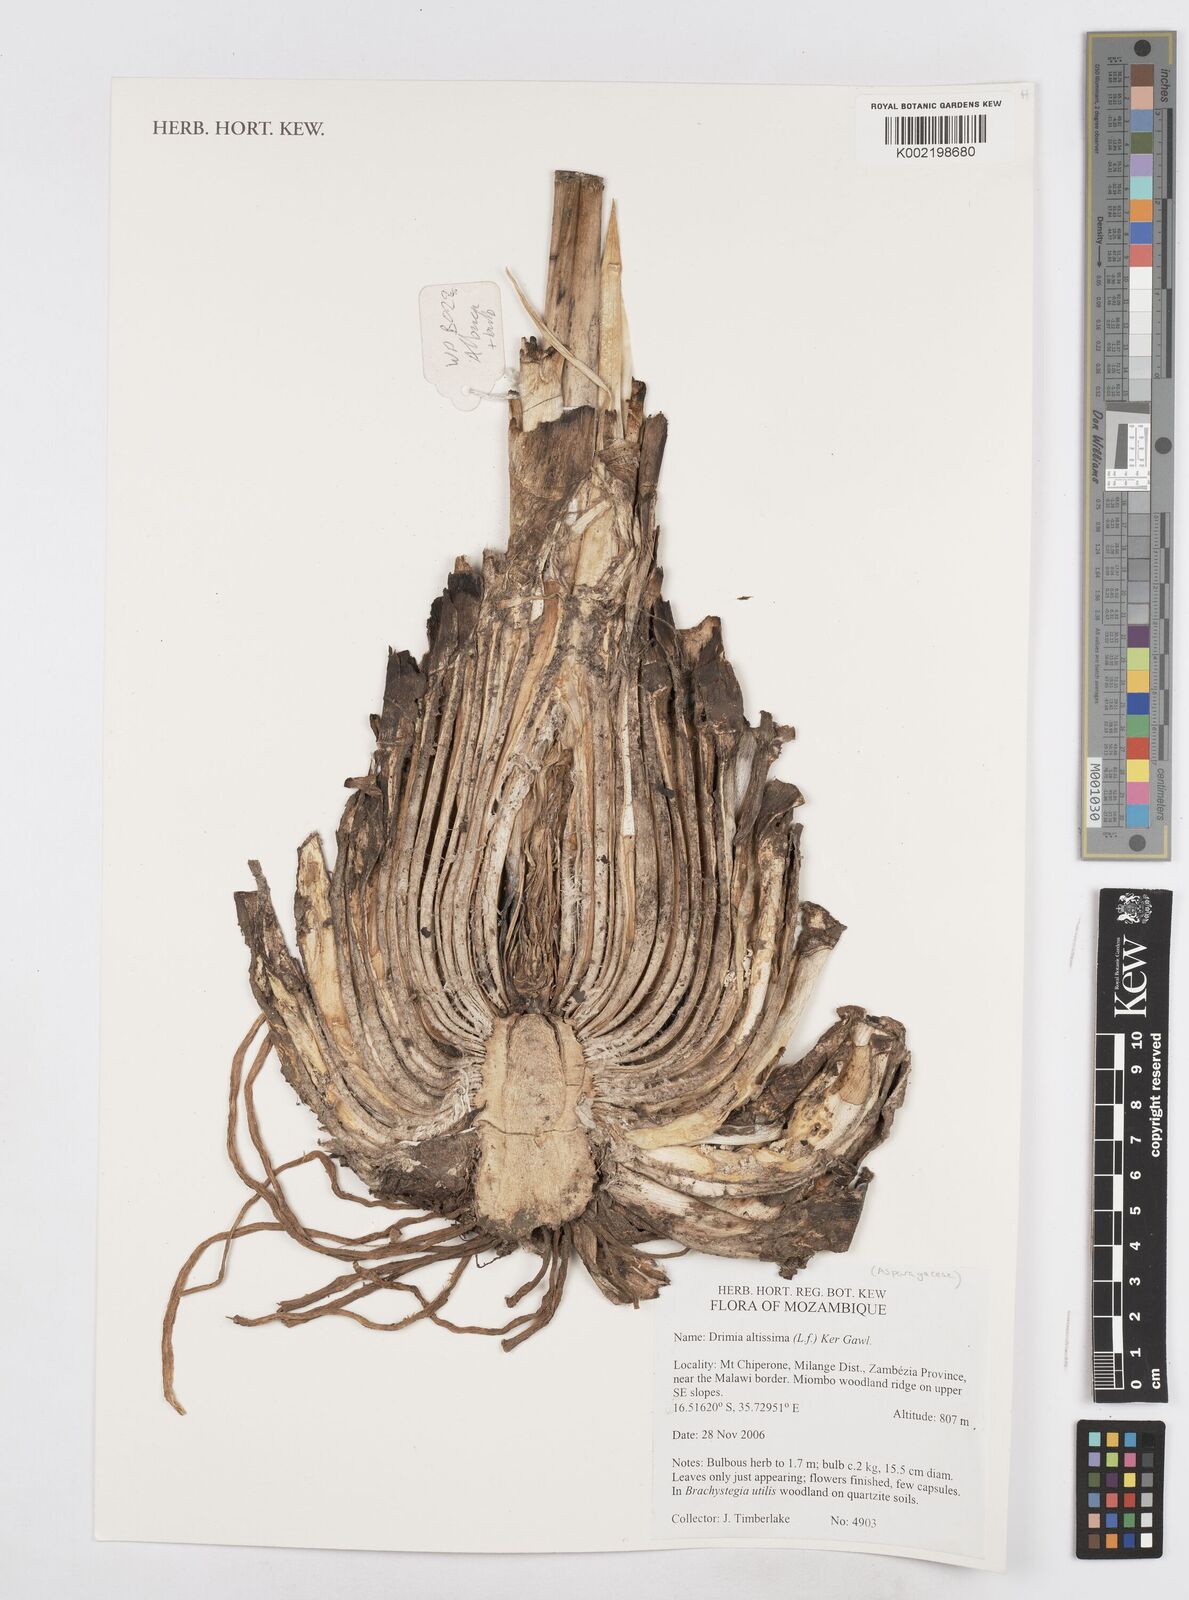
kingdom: Plantae
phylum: Tracheophyta
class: Liliopsida
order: Asparagales
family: Asparagaceae
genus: Drimia
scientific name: Drimia altissima
